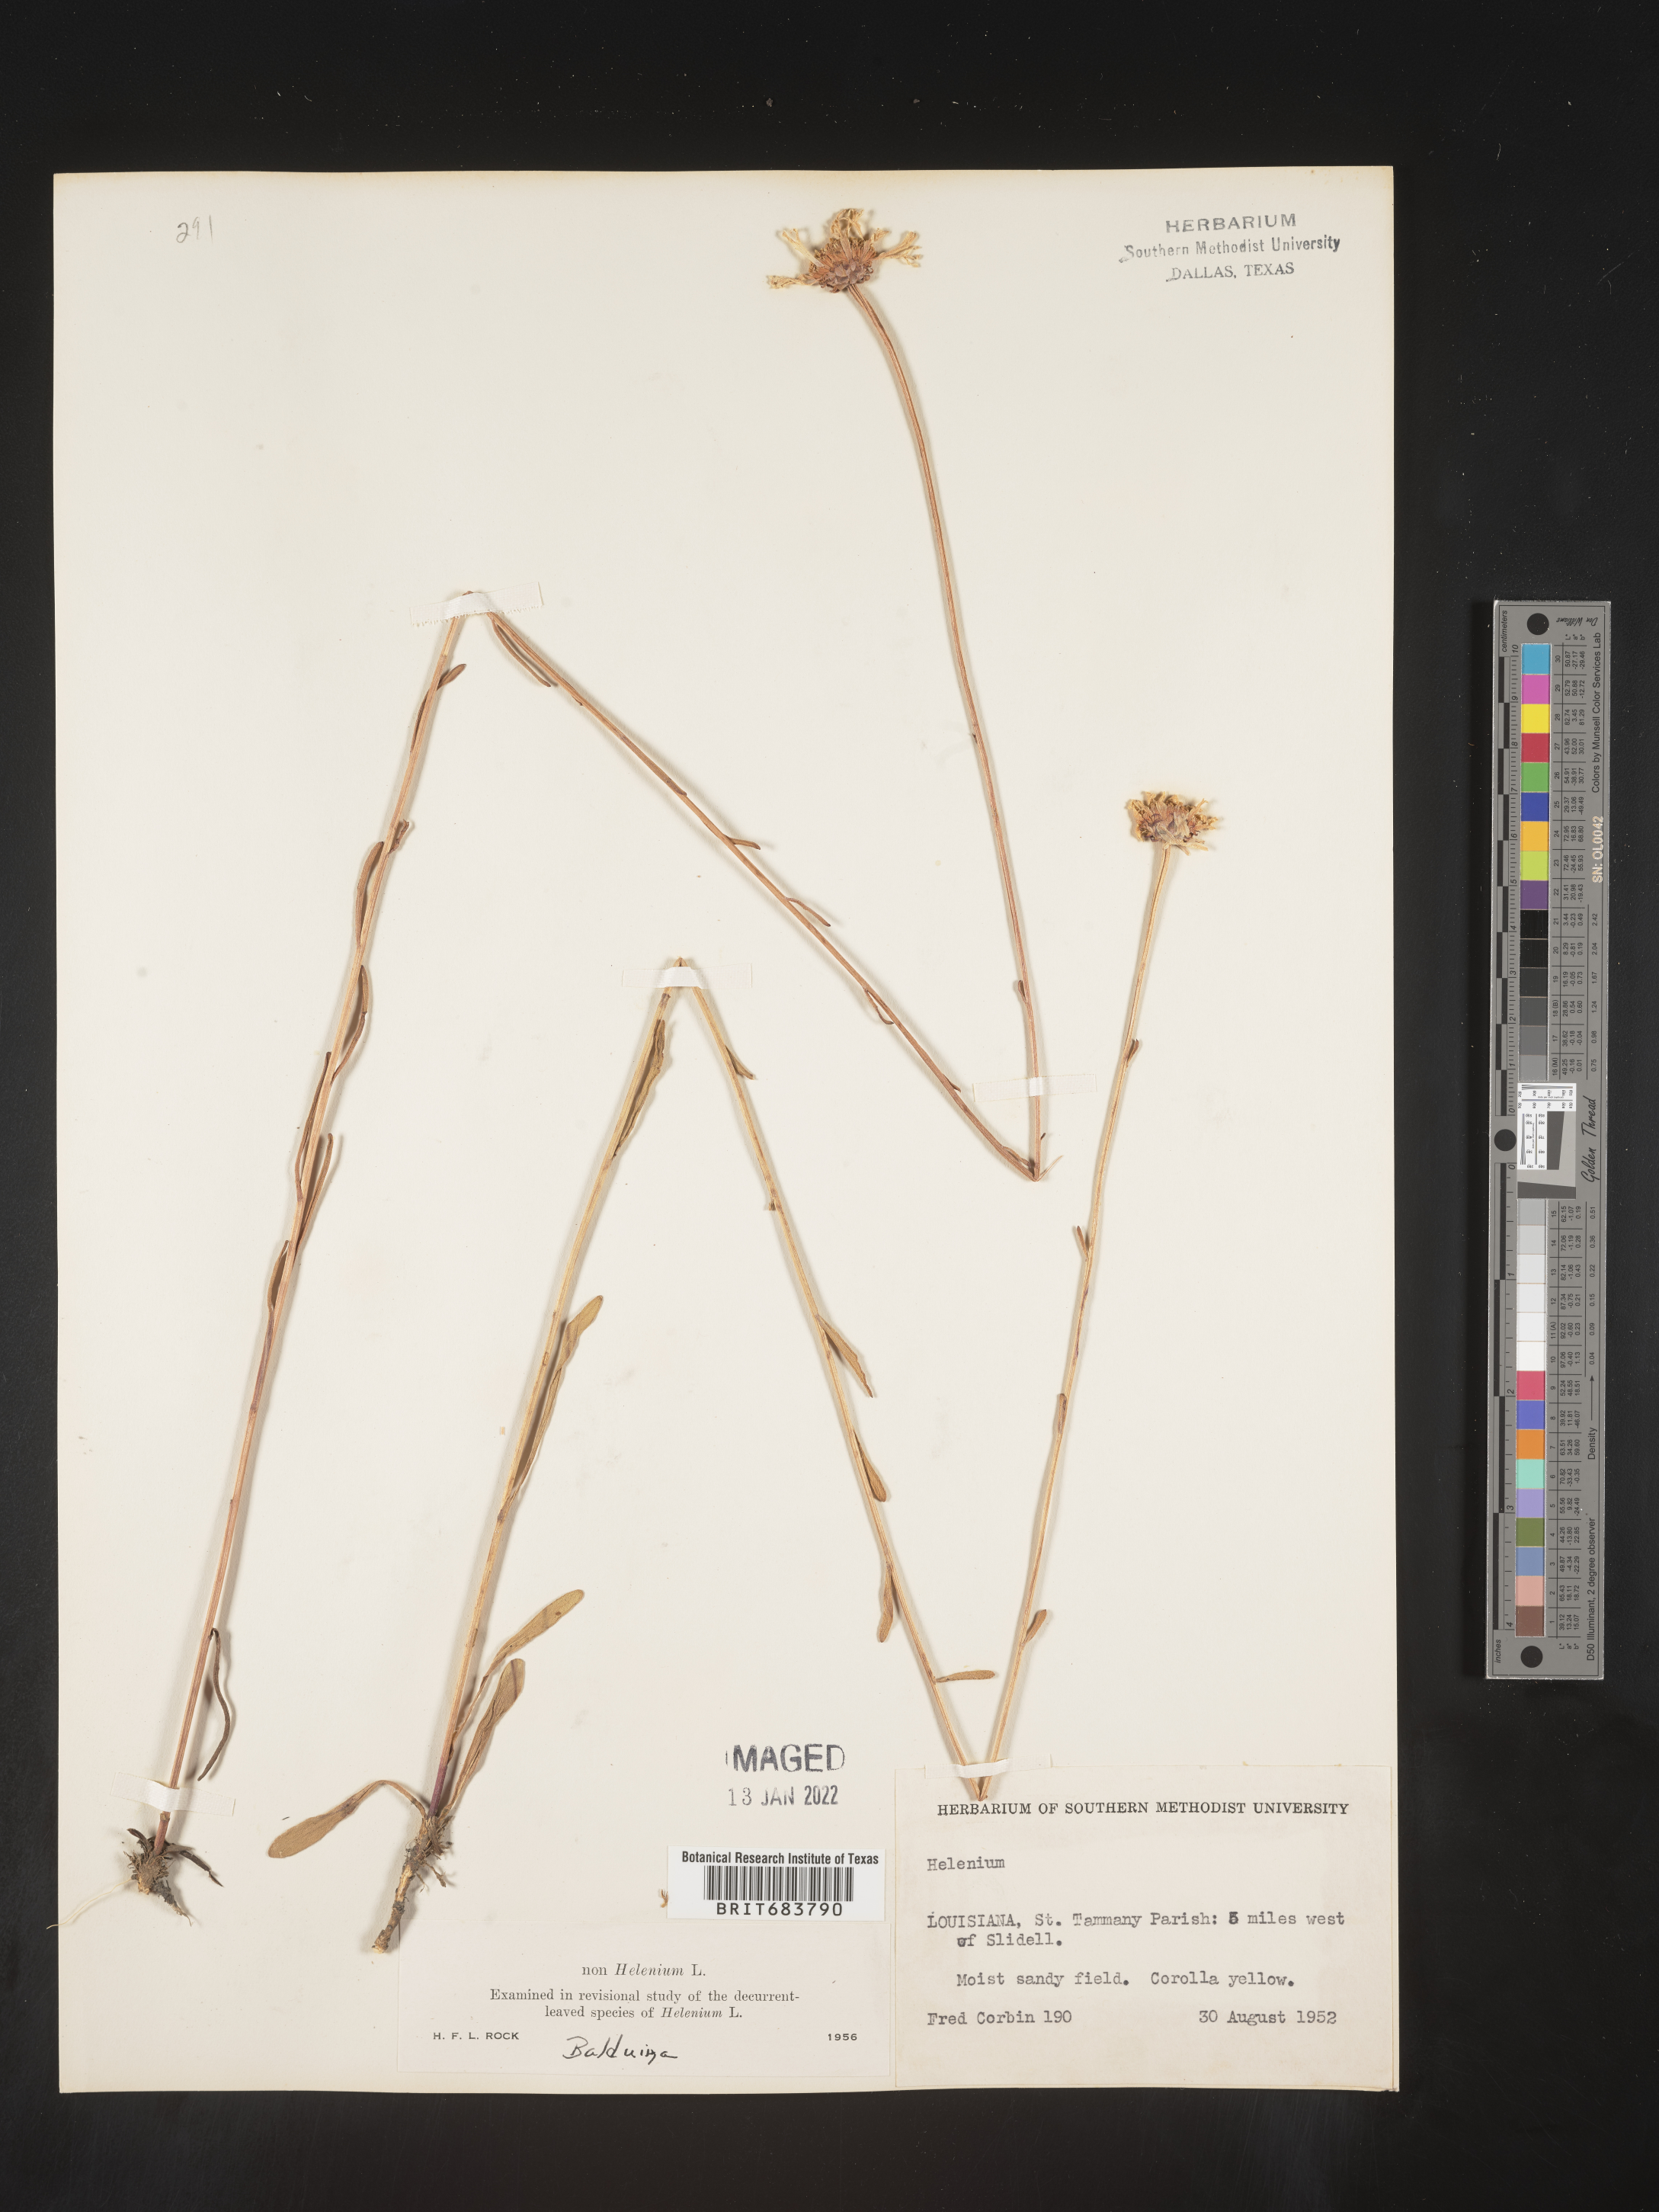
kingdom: Plantae
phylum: Tracheophyta
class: Magnoliopsida
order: Asterales
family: Asteraceae
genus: Balduina
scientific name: Balduina uniflora
